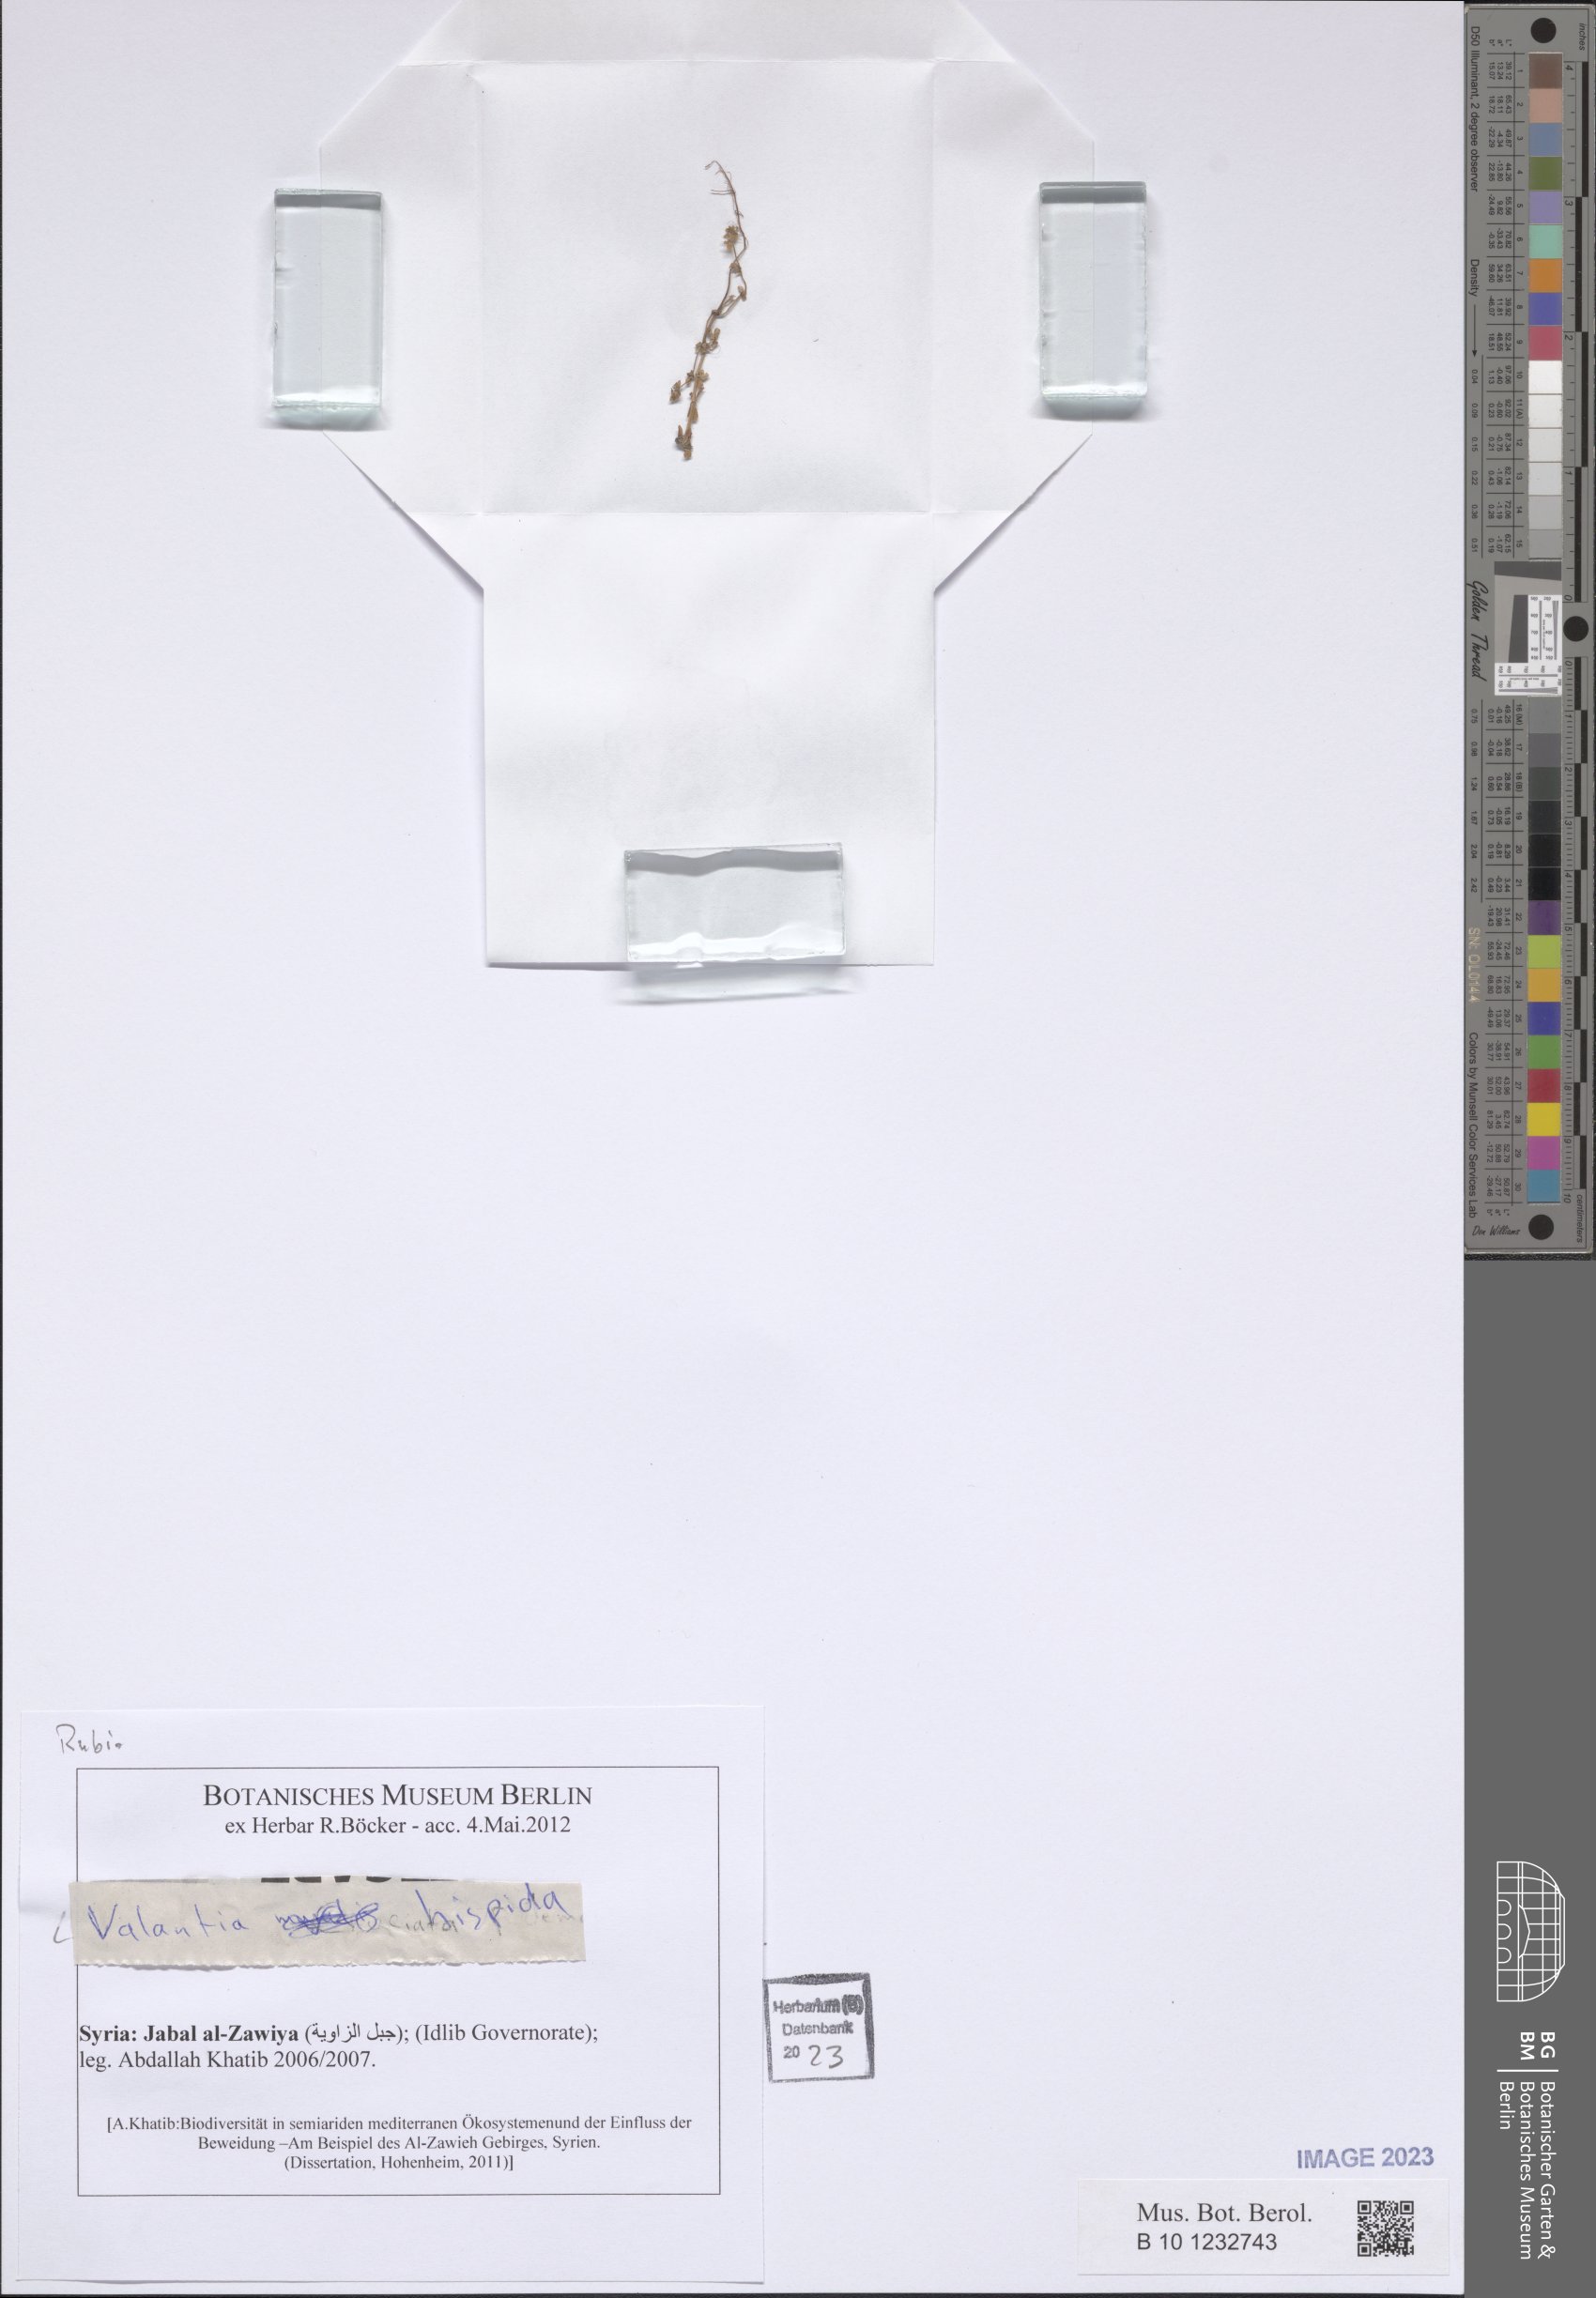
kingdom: Plantae
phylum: Tracheophyta
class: Magnoliopsida
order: Gentianales
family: Rubiaceae
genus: Valantia
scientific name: Valantia hispida
